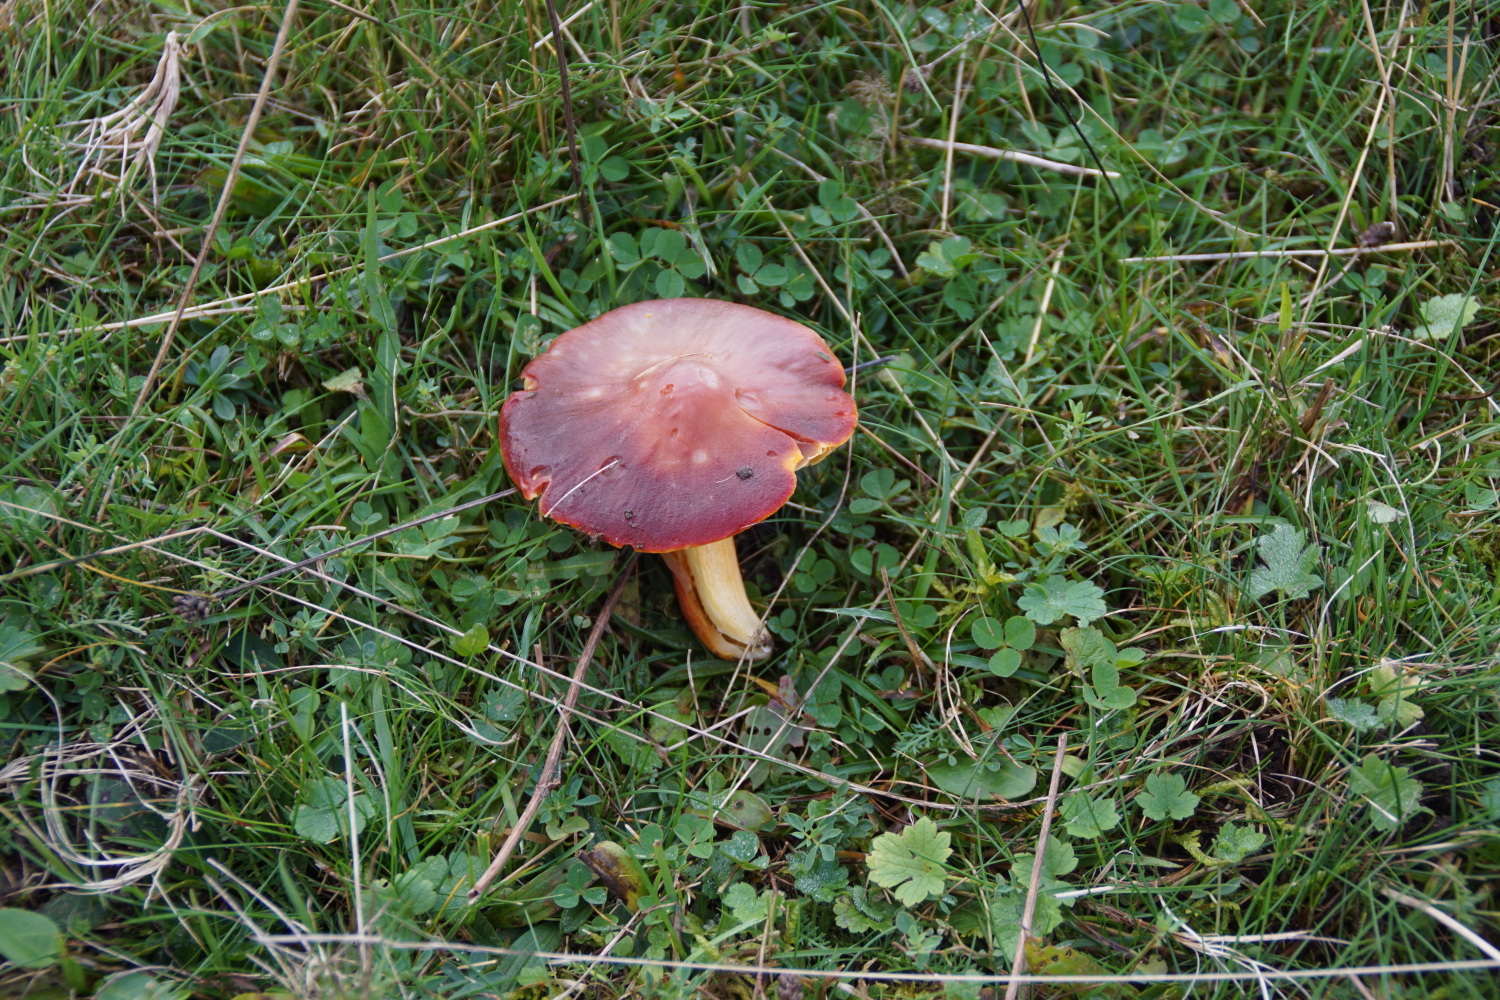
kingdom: Fungi
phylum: Basidiomycota
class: Agaricomycetes
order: Agaricales
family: Hygrophoraceae
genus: Hygrocybe
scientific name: Hygrocybe punicea
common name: skarlagen-vokshat
